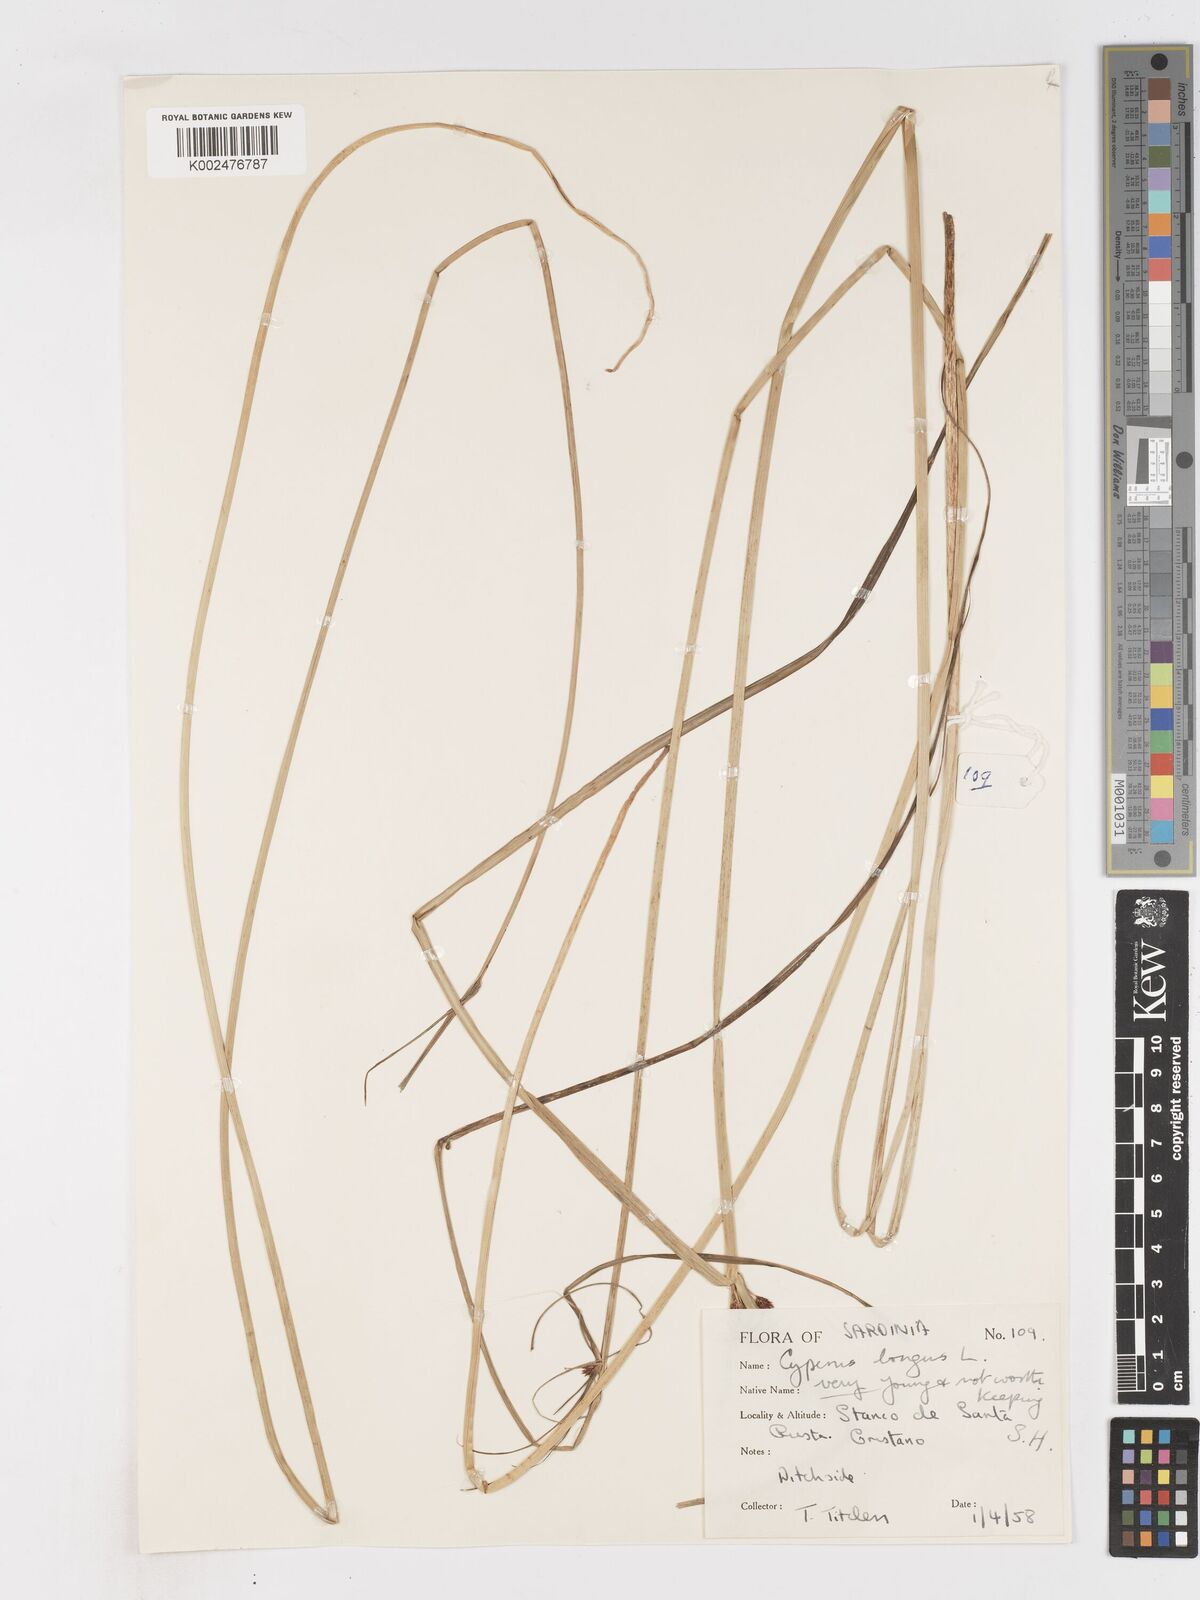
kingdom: Plantae
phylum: Tracheophyta
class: Liliopsida
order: Poales
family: Cyperaceae
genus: Cyperus
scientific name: Cyperus longus
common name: Galingale
